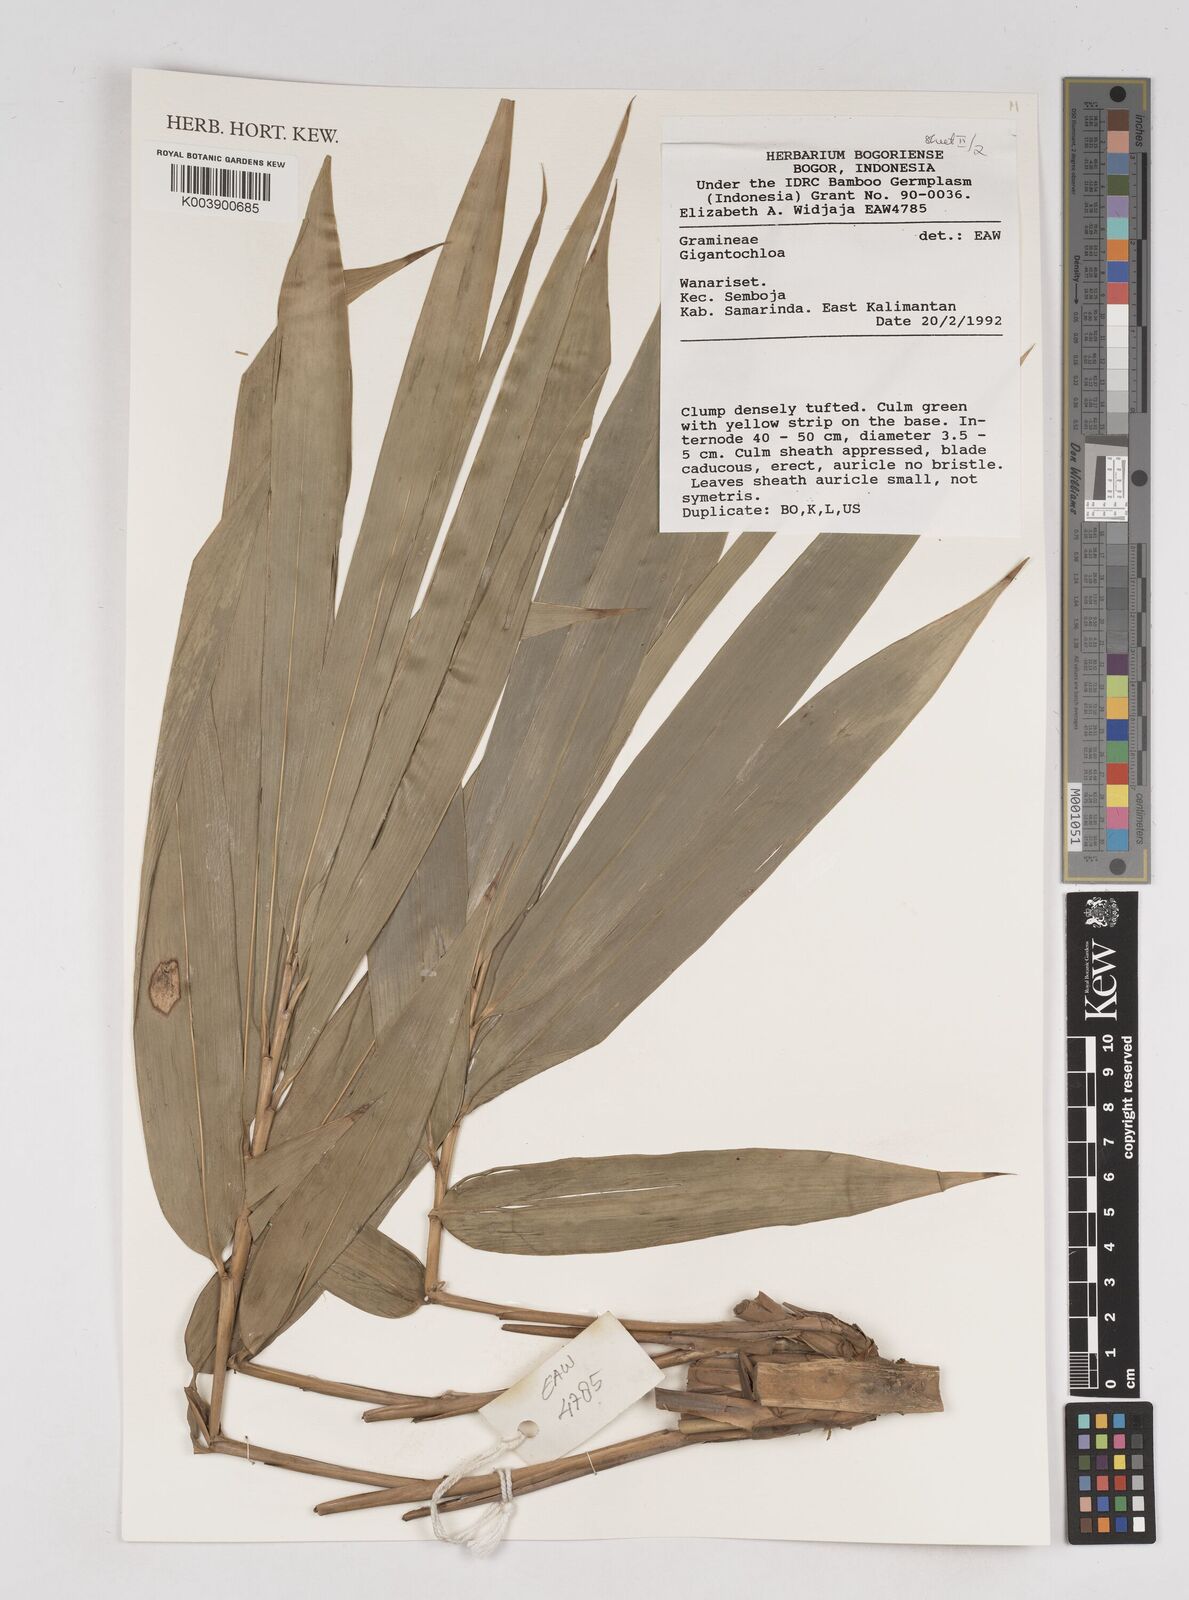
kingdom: Plantae
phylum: Tracheophyta
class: Liliopsida
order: Poales
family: Poaceae
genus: Gigantochloa
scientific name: Gigantochloa
